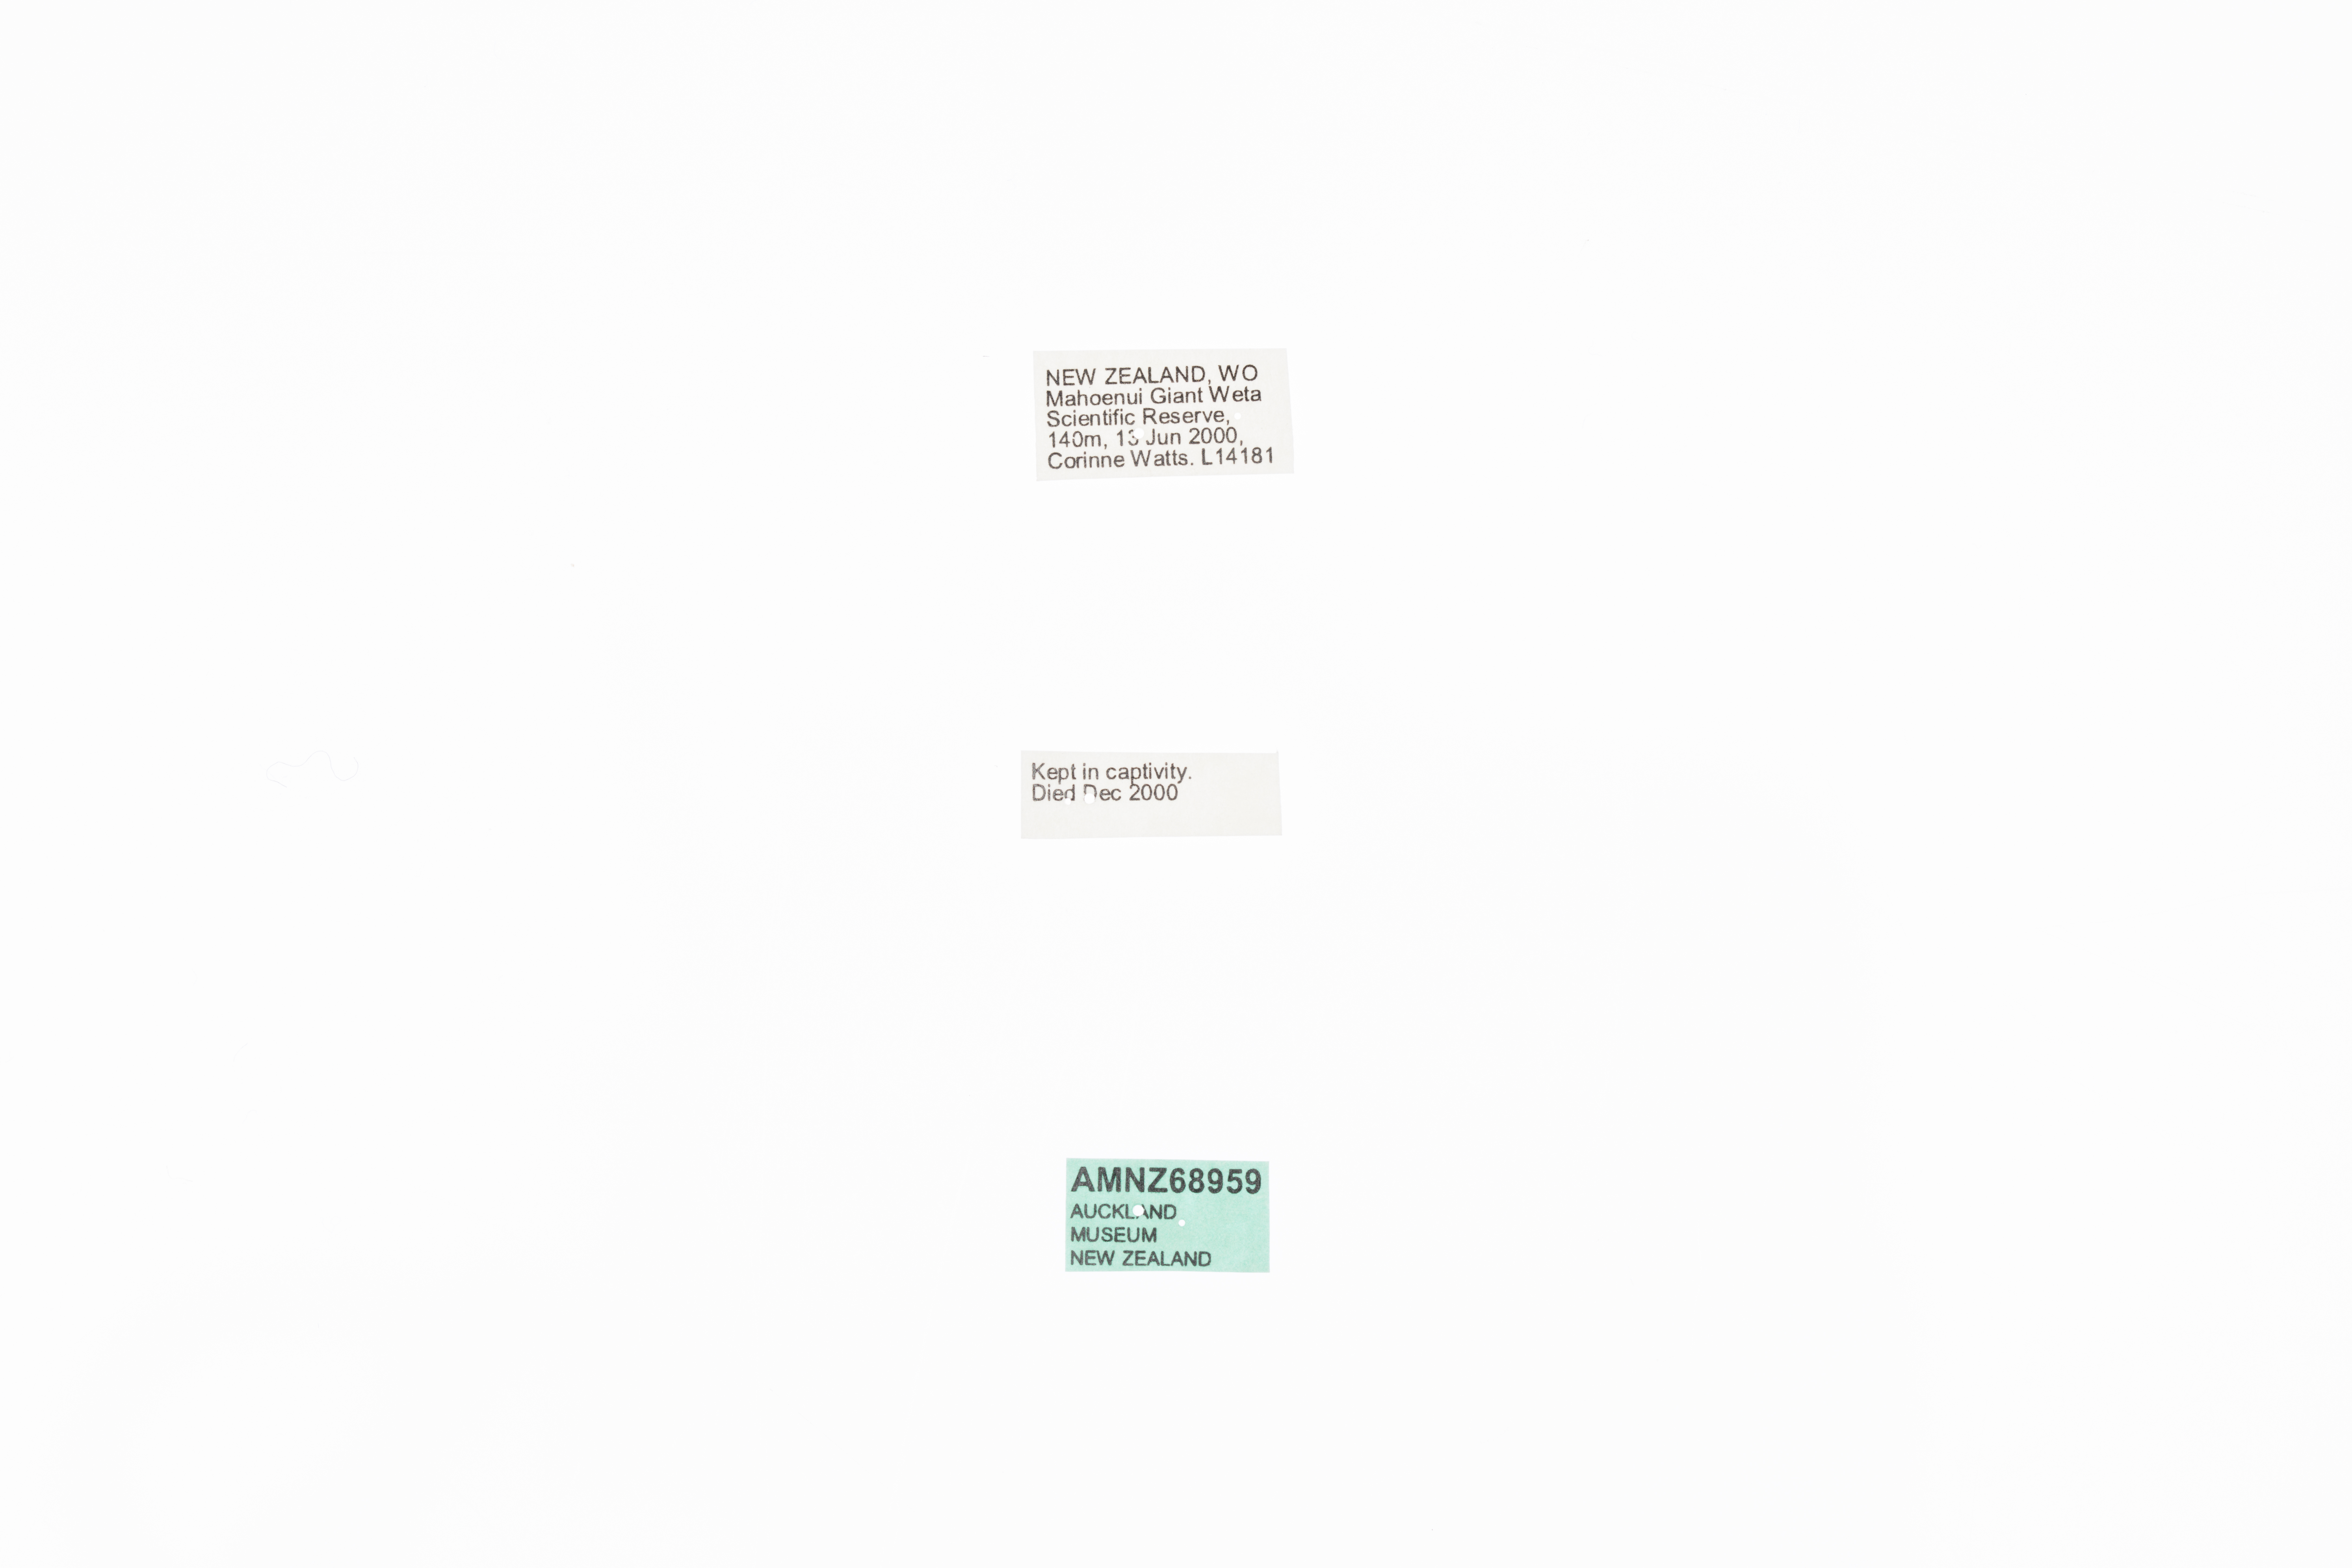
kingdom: Animalia
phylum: Arthropoda
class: Insecta
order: Orthoptera
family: Anostostomatidae
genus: Deinacrida
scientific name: Deinacrida mahoenui
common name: Mahoenui giant weta
